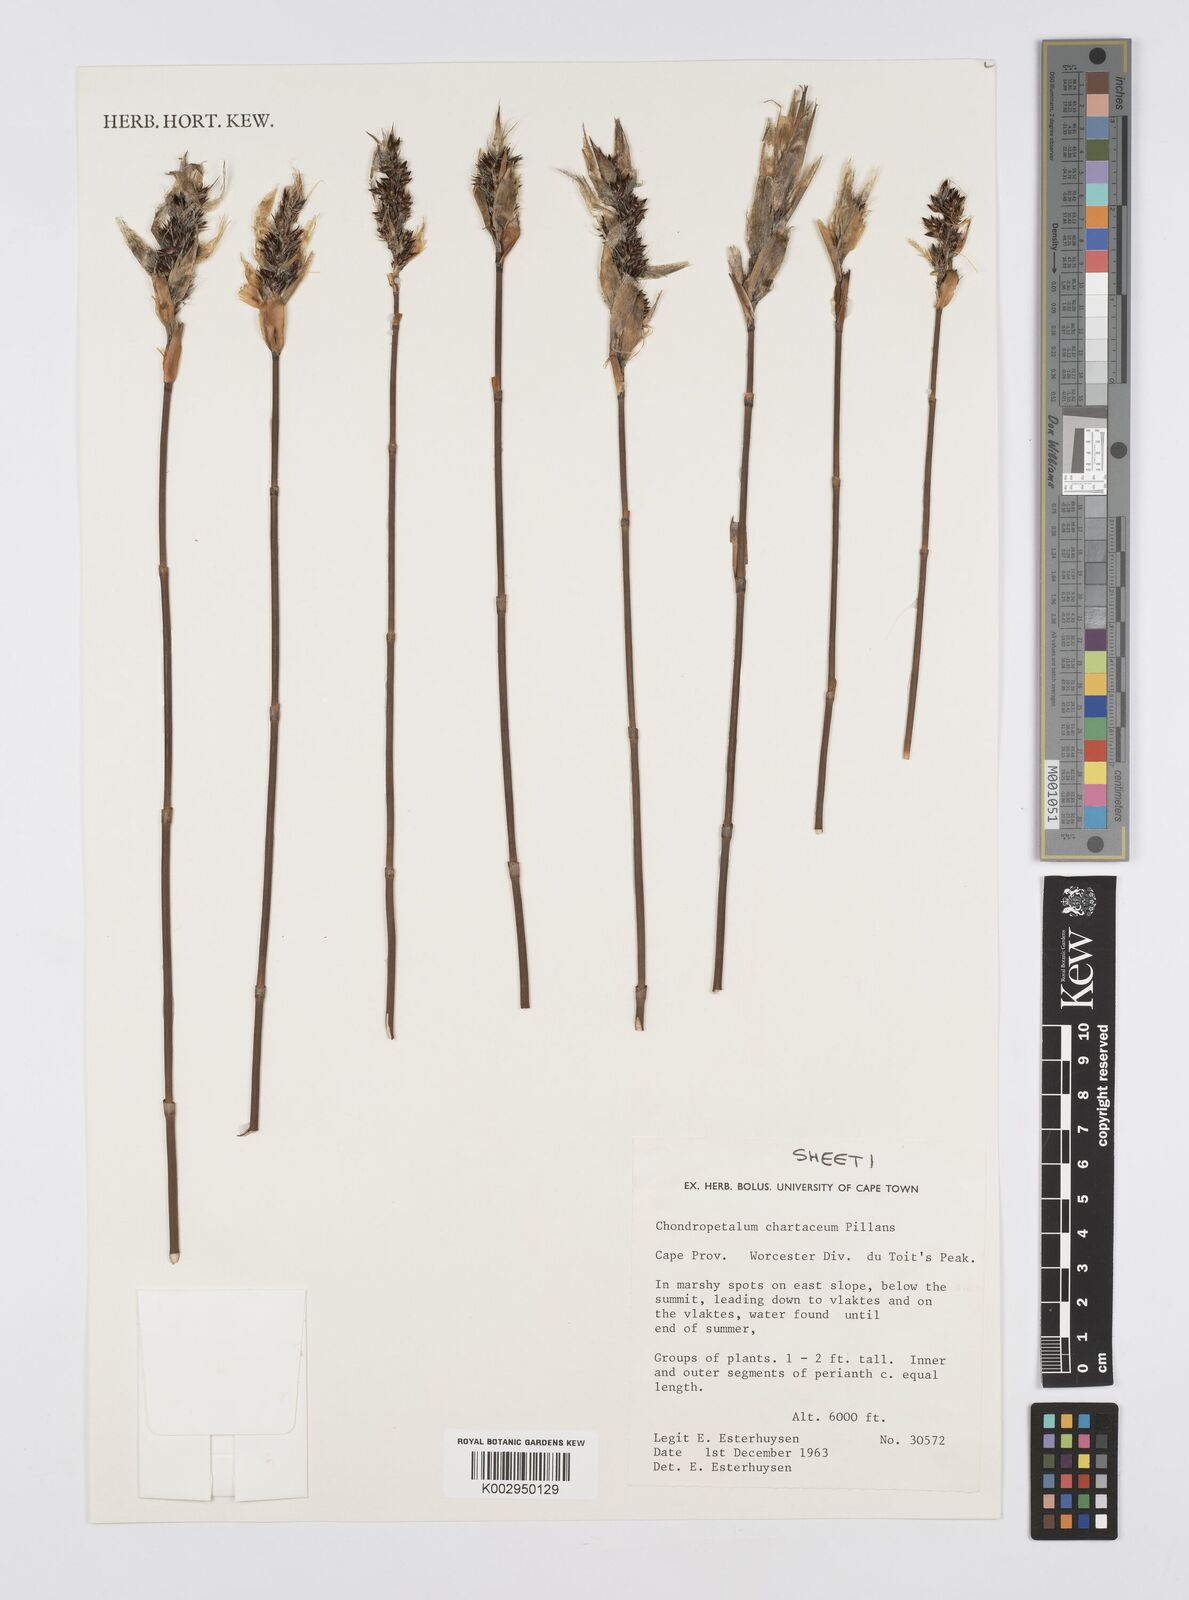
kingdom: Plantae
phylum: Tracheophyta
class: Liliopsida
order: Poales
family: Restionaceae
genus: Askidiosperma
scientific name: Askidiosperma chartaceum
